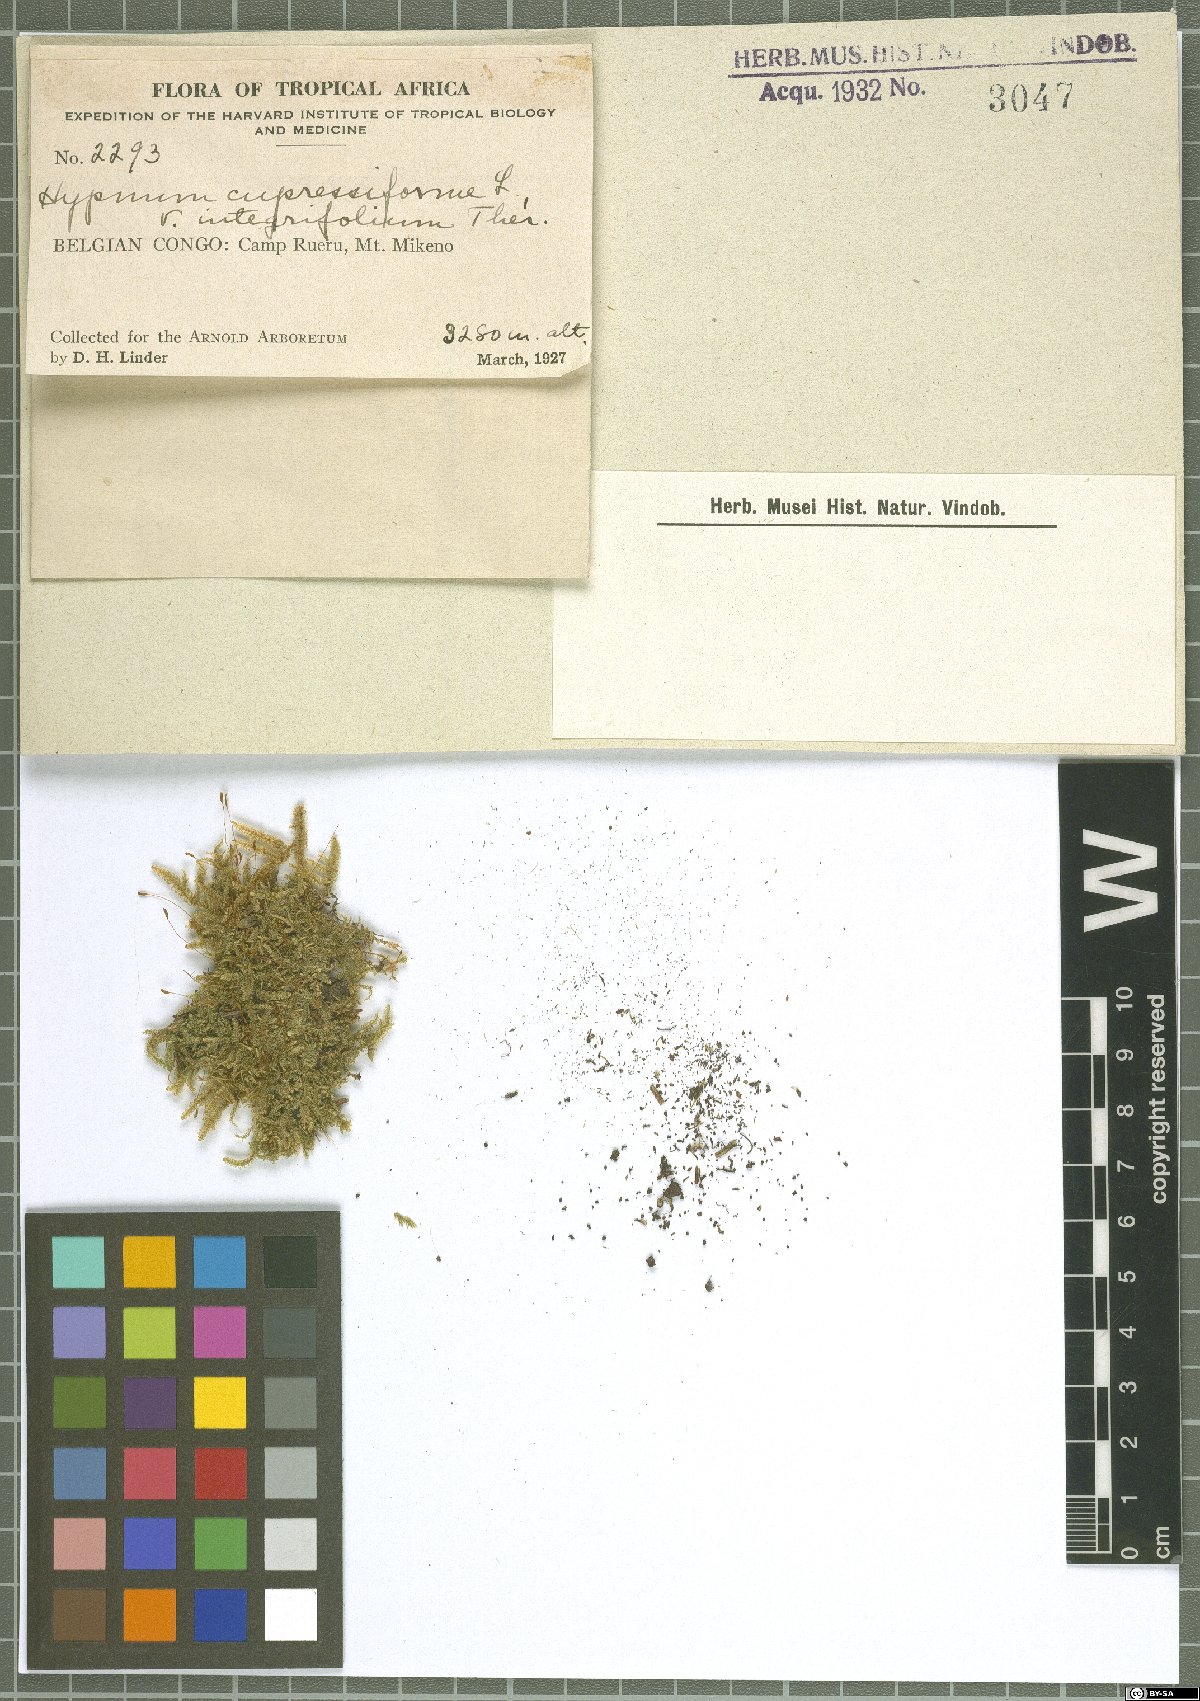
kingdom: Plantae
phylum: Bryophyta
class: Bryopsida
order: Hypnales
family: Hypnaceae
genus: Hypnum
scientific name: Hypnum cupressiforme
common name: Cypress-leaved plait-moss
